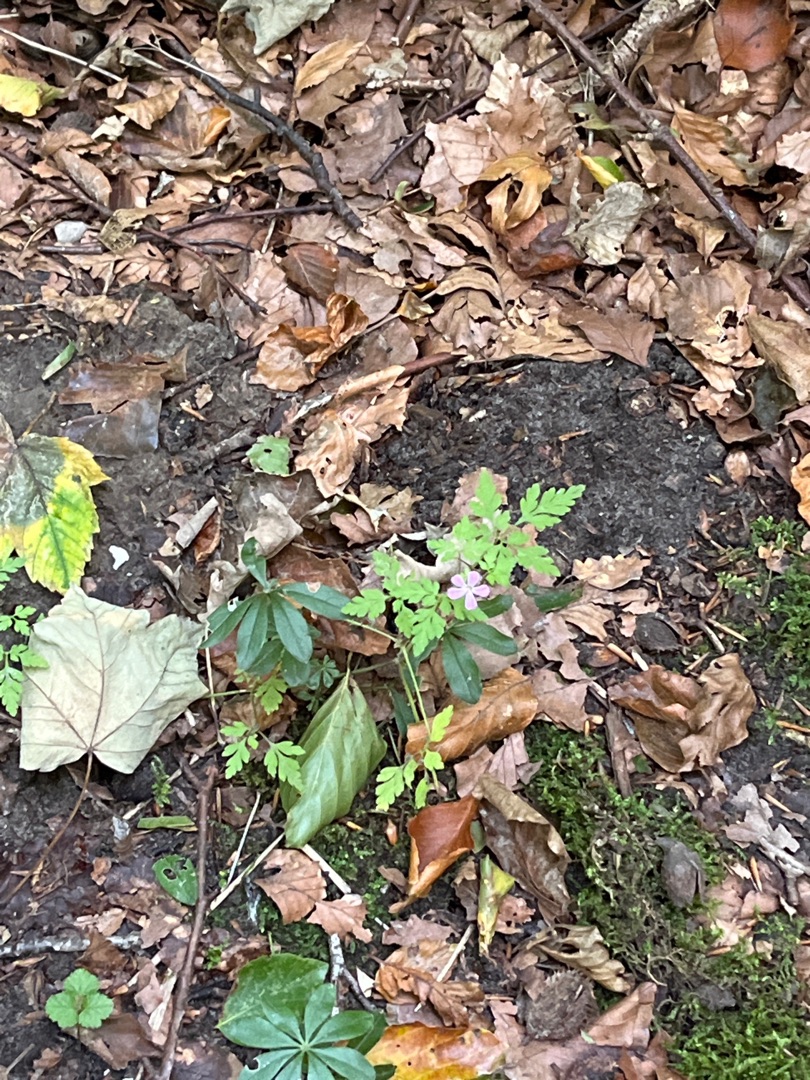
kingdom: Plantae
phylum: Tracheophyta
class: Magnoliopsida
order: Geraniales
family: Geraniaceae
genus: Geranium
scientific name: Geranium robertianum
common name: Stinkende storkenæb
